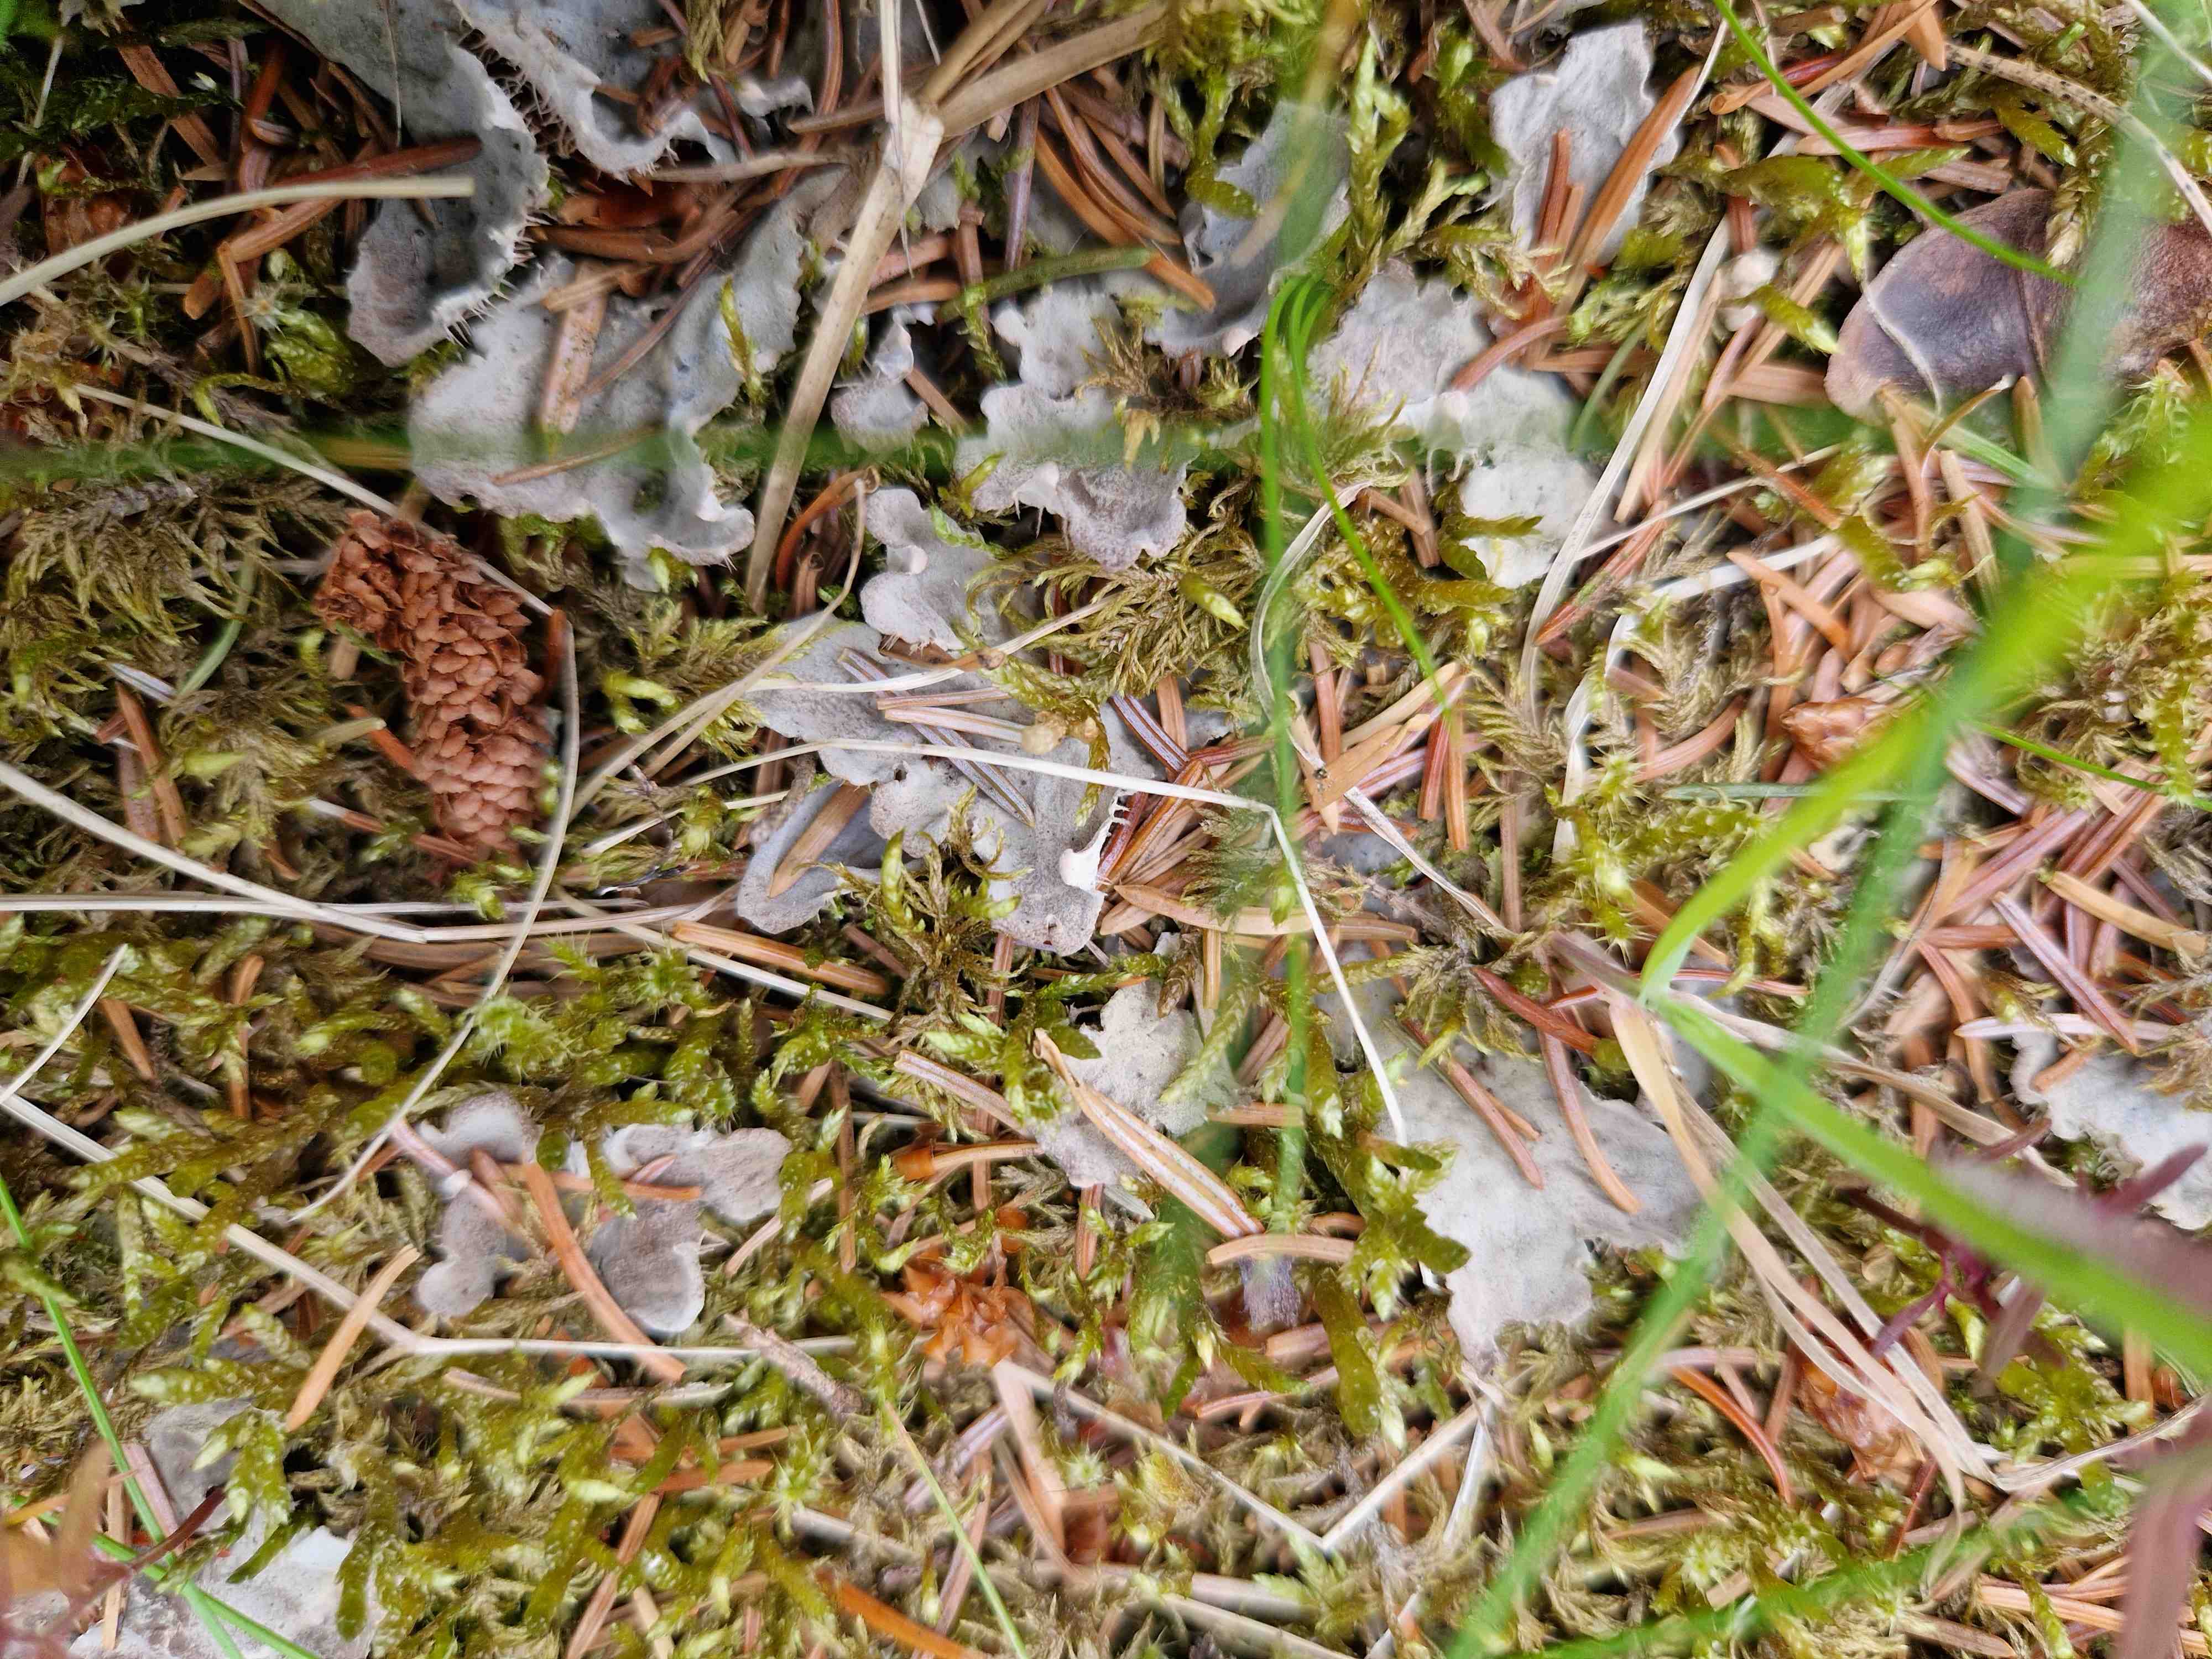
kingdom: Fungi
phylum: Ascomycota
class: Lecanoromycetes
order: Peltigerales
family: Peltigeraceae
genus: Peltigera
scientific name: Peltigera
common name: skjoldlav
